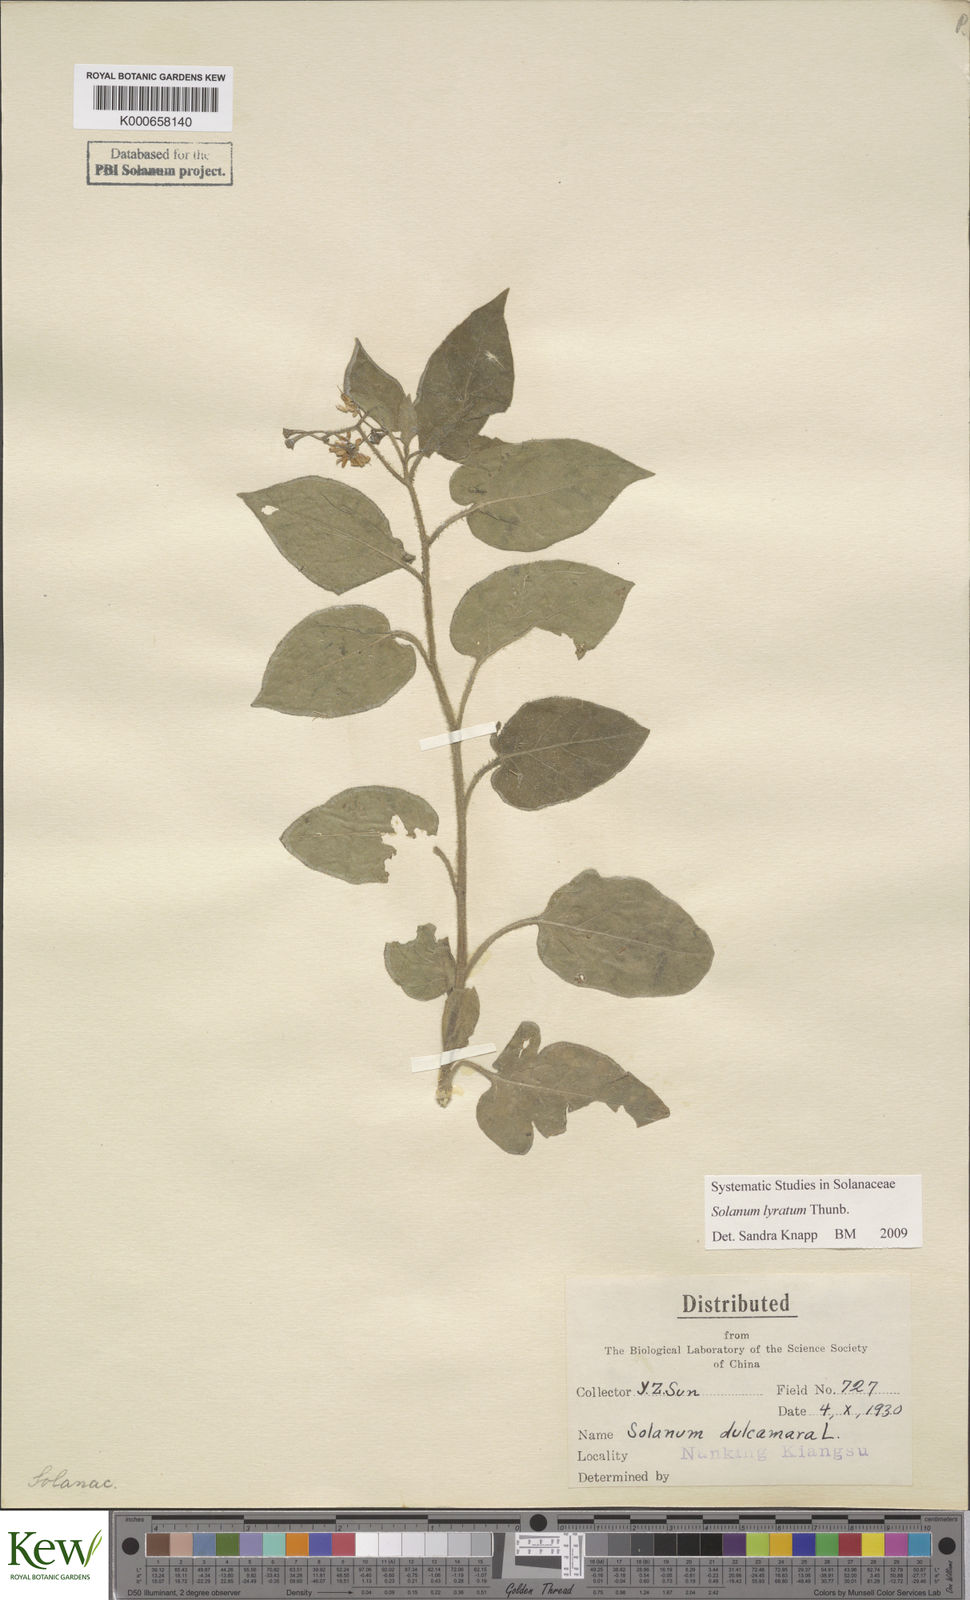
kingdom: Plantae
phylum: Tracheophyta
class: Magnoliopsida
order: Solanales
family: Solanaceae
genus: Solanum
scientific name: Solanum lyratum
